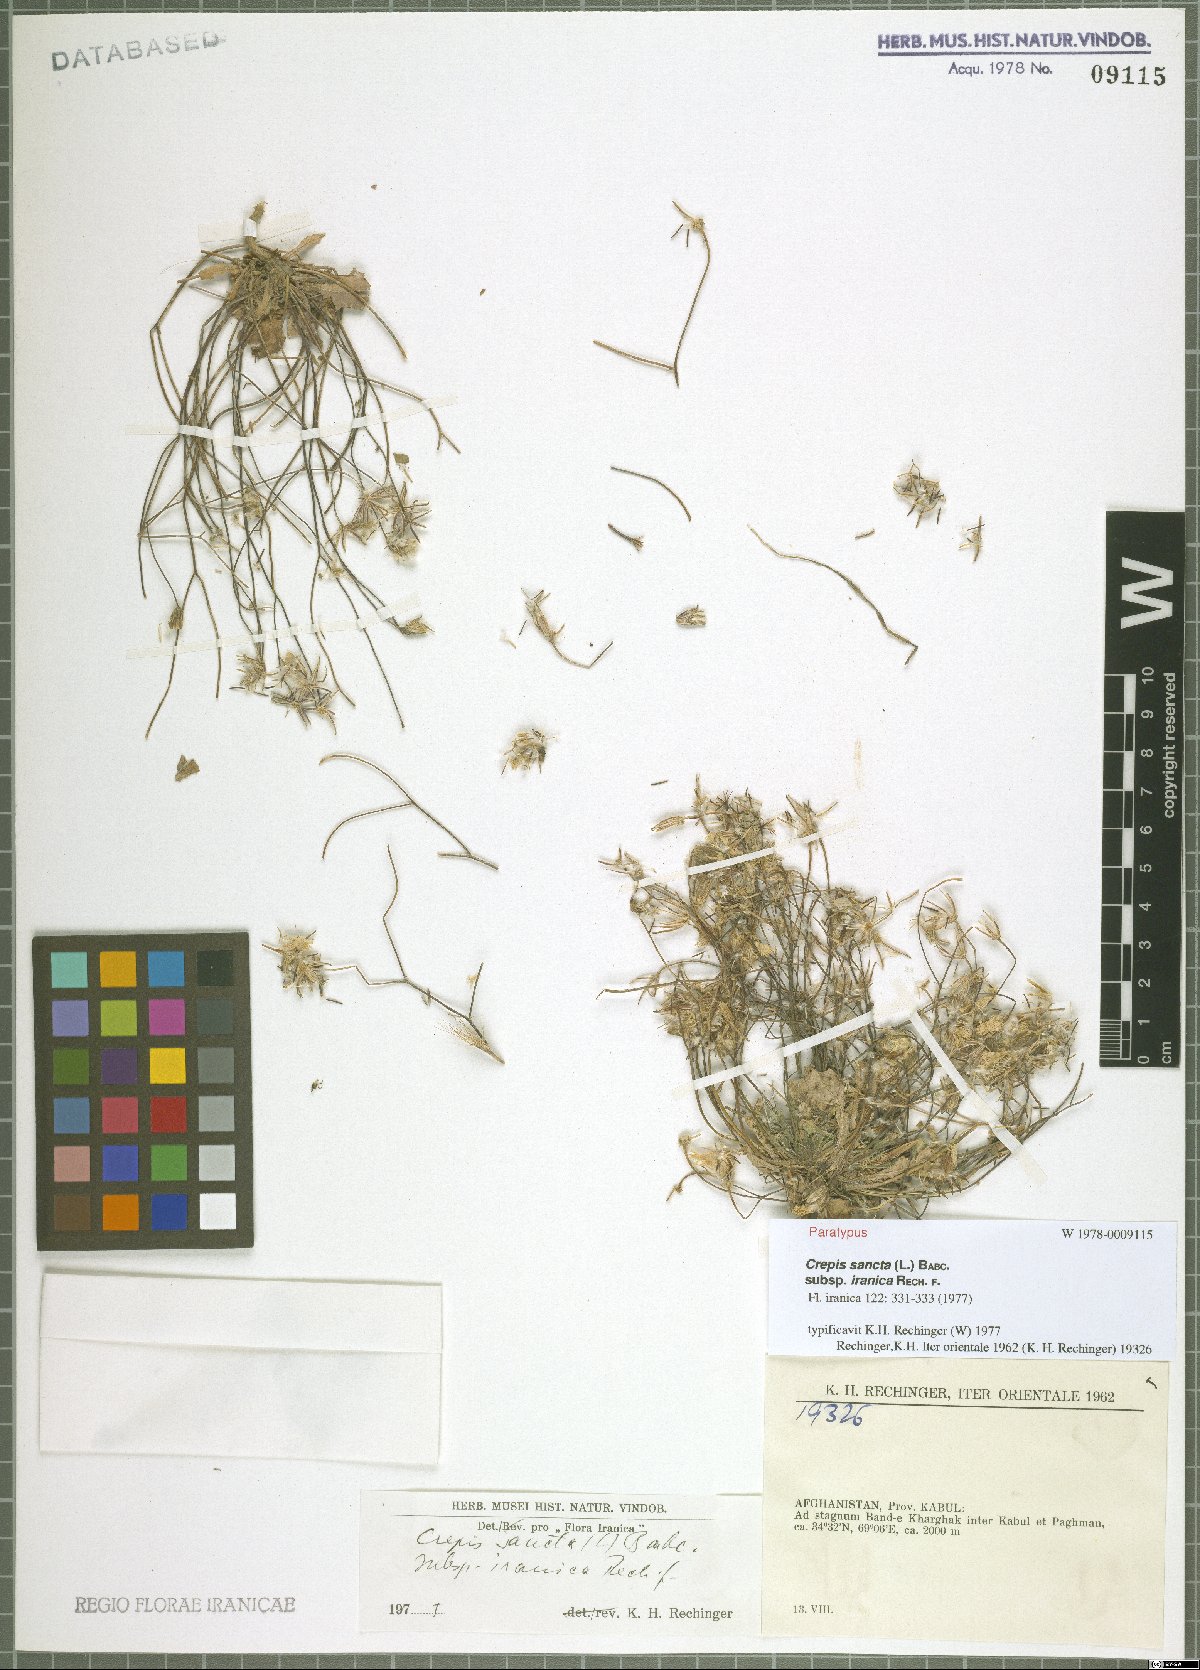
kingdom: Plantae
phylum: Tracheophyta
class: Magnoliopsida
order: Asterales
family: Asteraceae
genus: Crepis
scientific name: Crepis sancta
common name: Hawk's-beard
